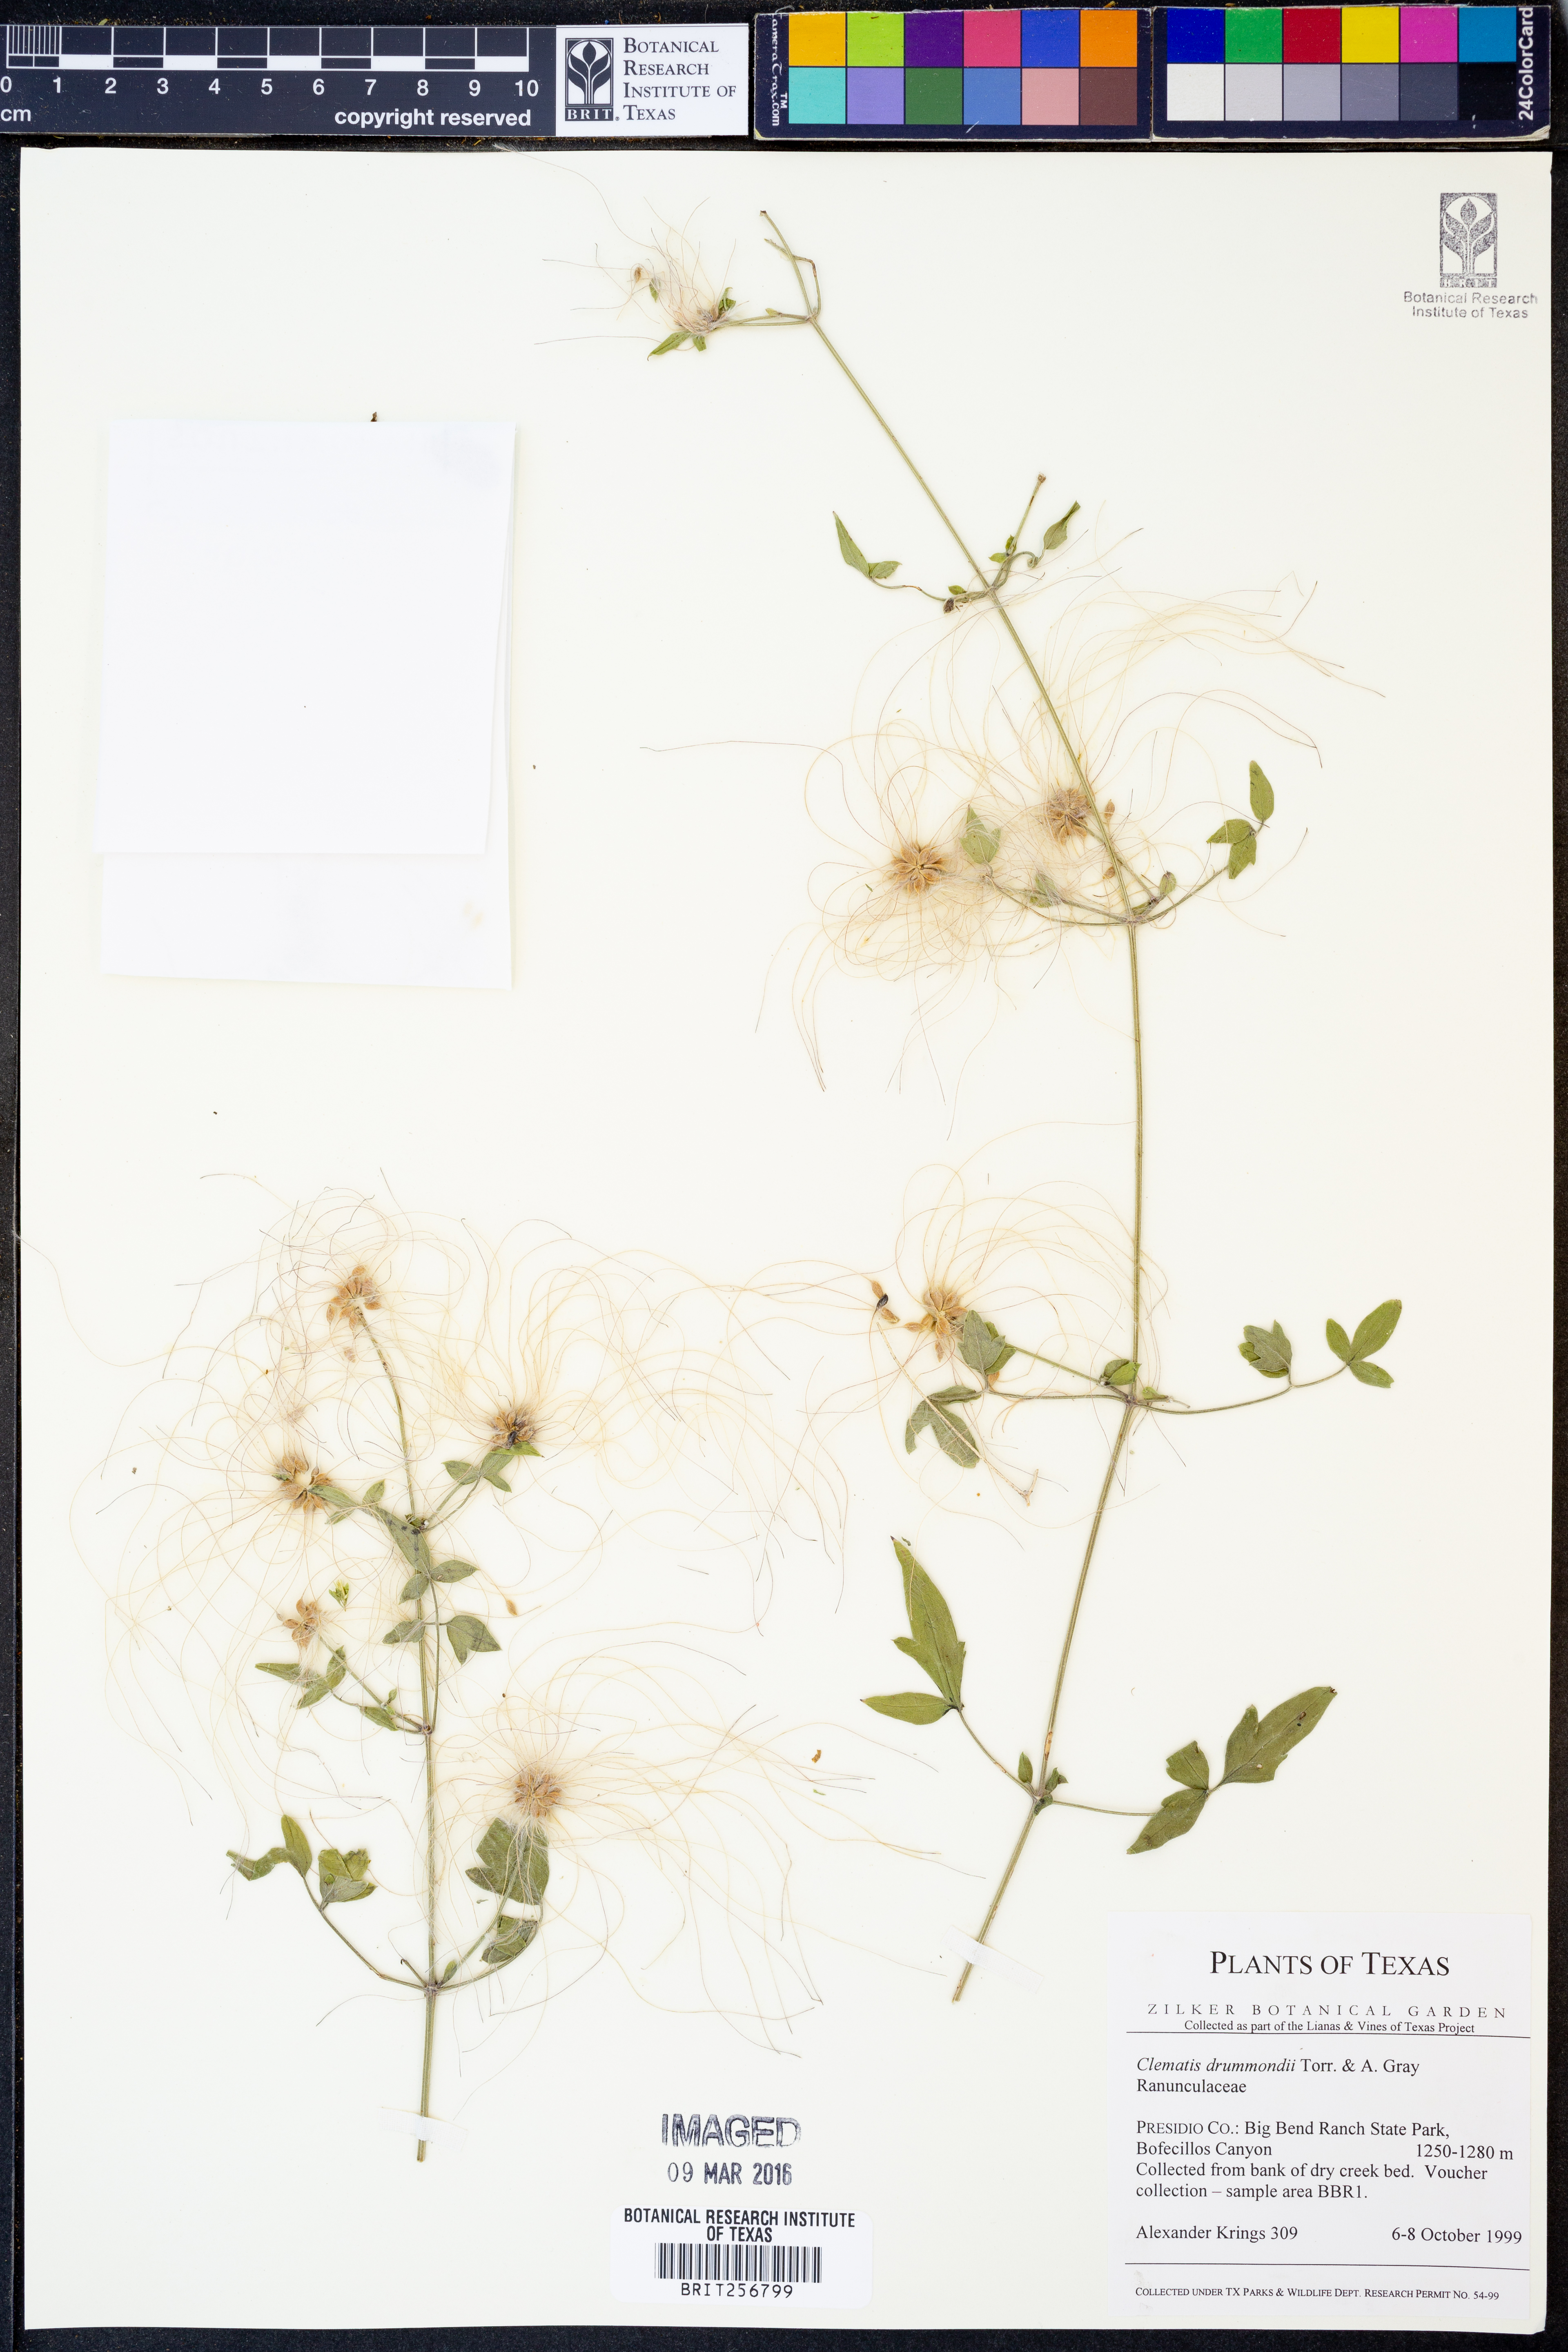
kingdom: Plantae
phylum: Tracheophyta
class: Magnoliopsida
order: Ranunculales
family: Ranunculaceae
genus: Clematis
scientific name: Clematis drummondii
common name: Texas virgin's bower
